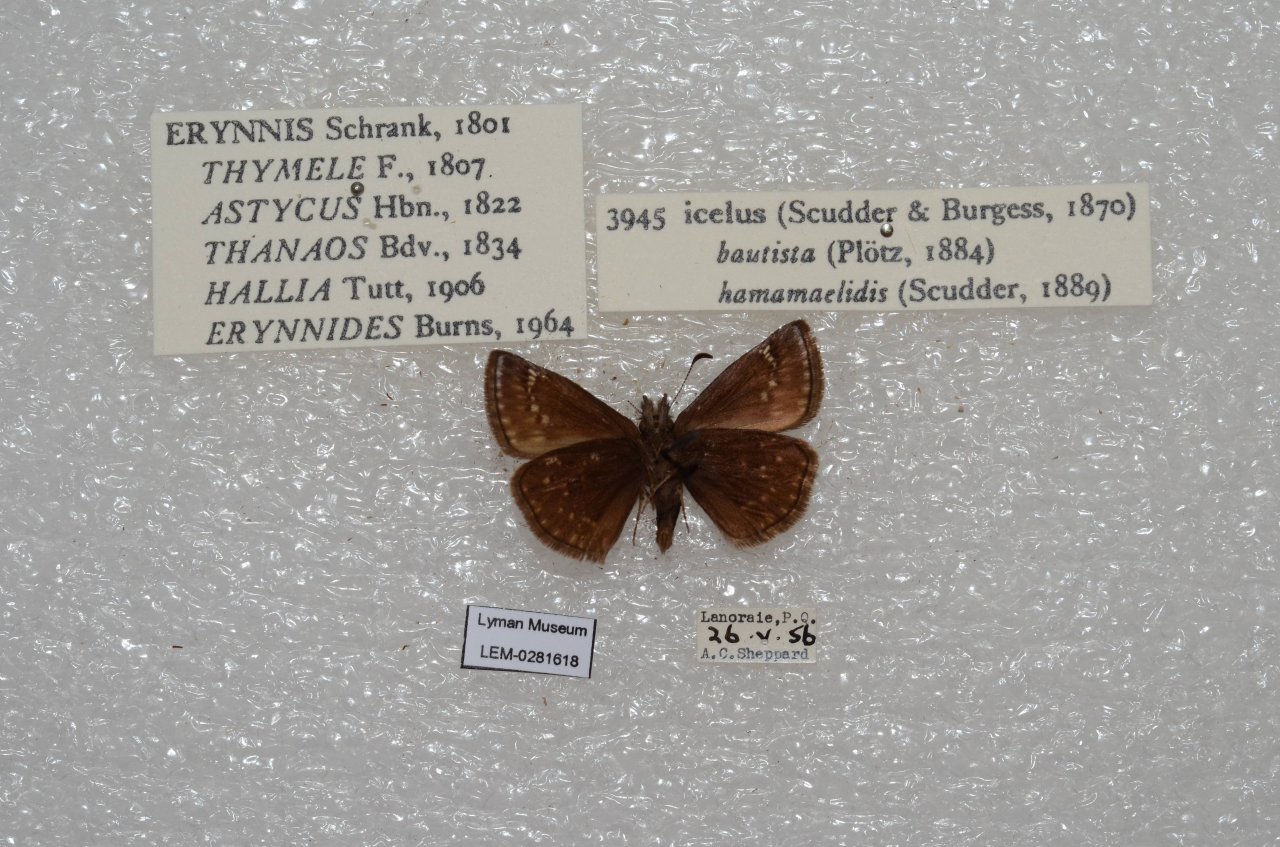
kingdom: Animalia
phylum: Arthropoda
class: Insecta
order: Lepidoptera
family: Hesperiidae
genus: Erynnis
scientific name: Erynnis icelus
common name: Dreamy Duskywing
